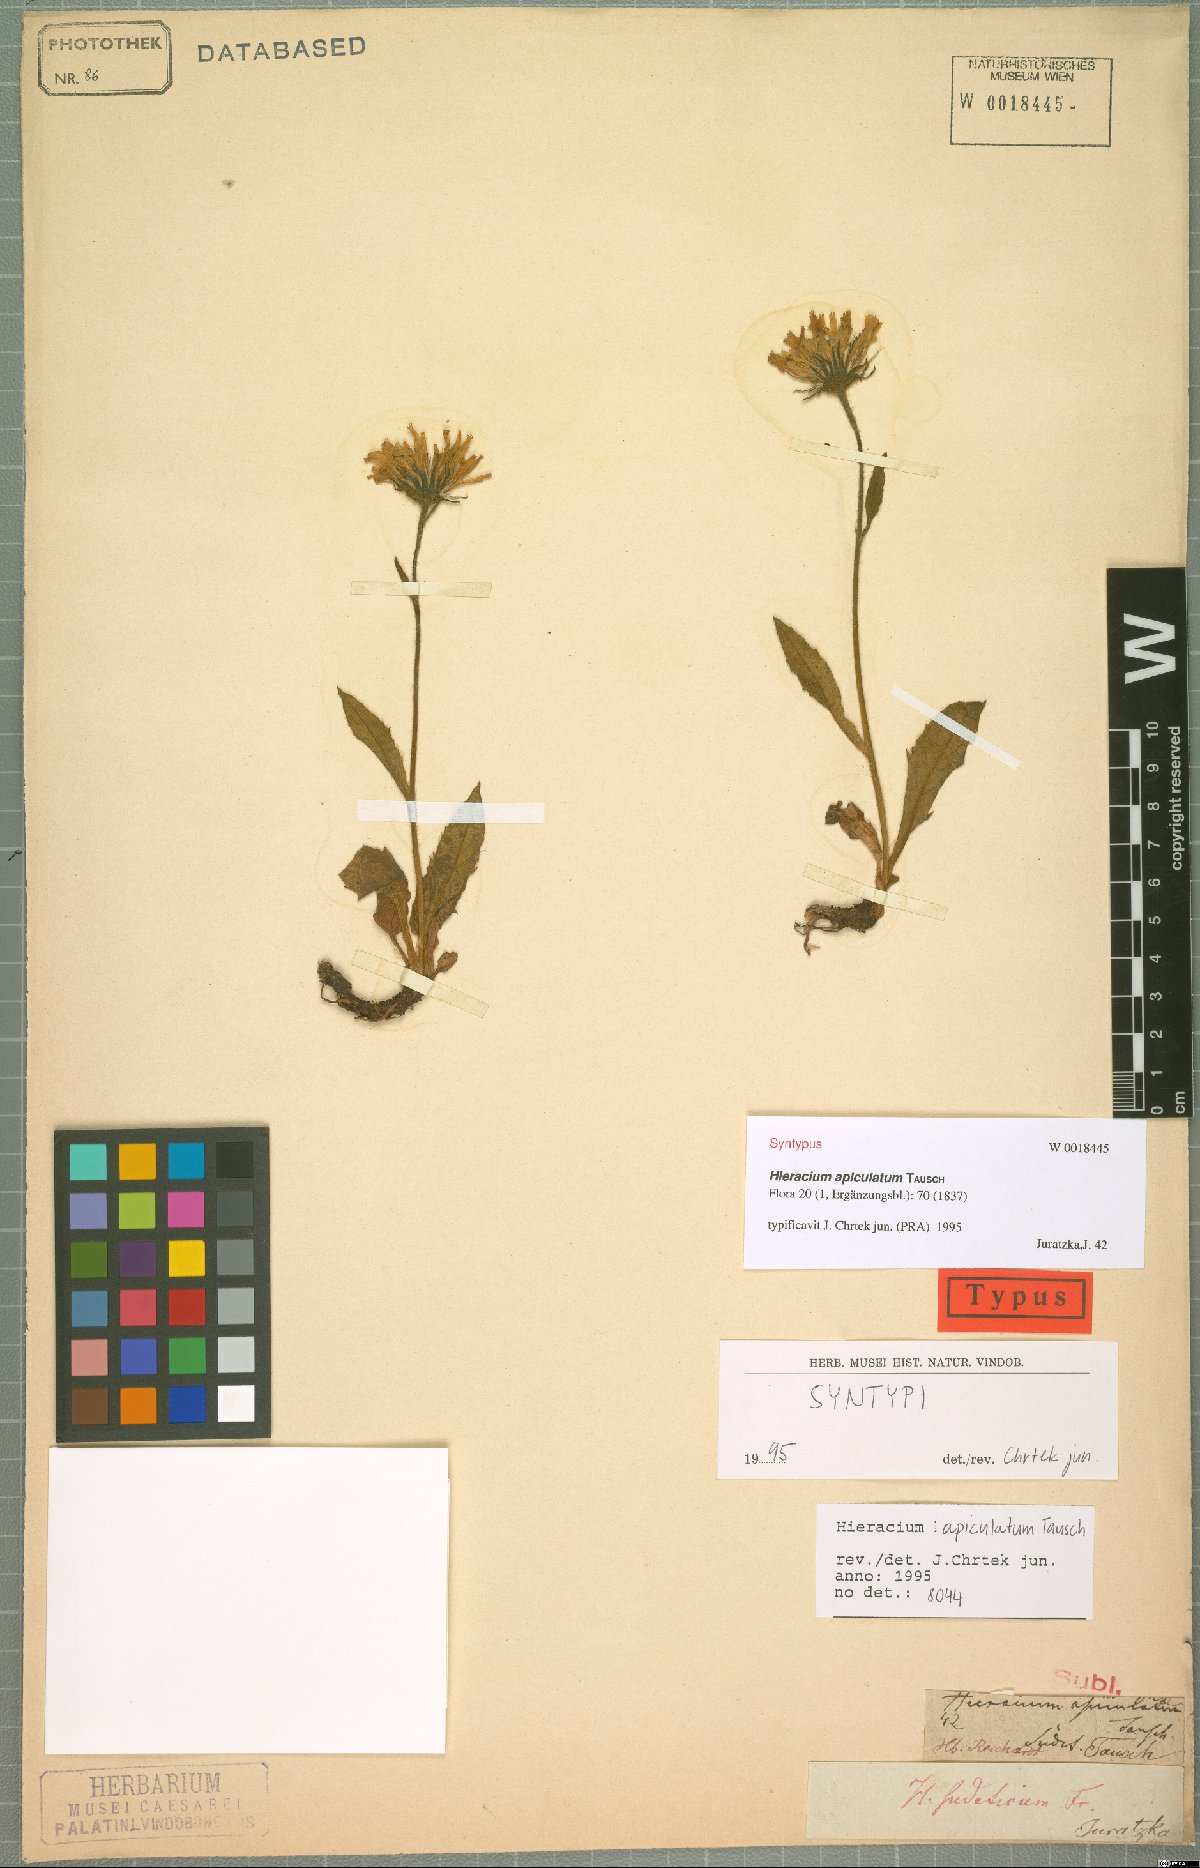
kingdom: Plantae
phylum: Tracheophyta
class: Magnoliopsida
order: Asterales
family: Asteraceae
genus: Hieracium
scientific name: Hieracium apiculatum
